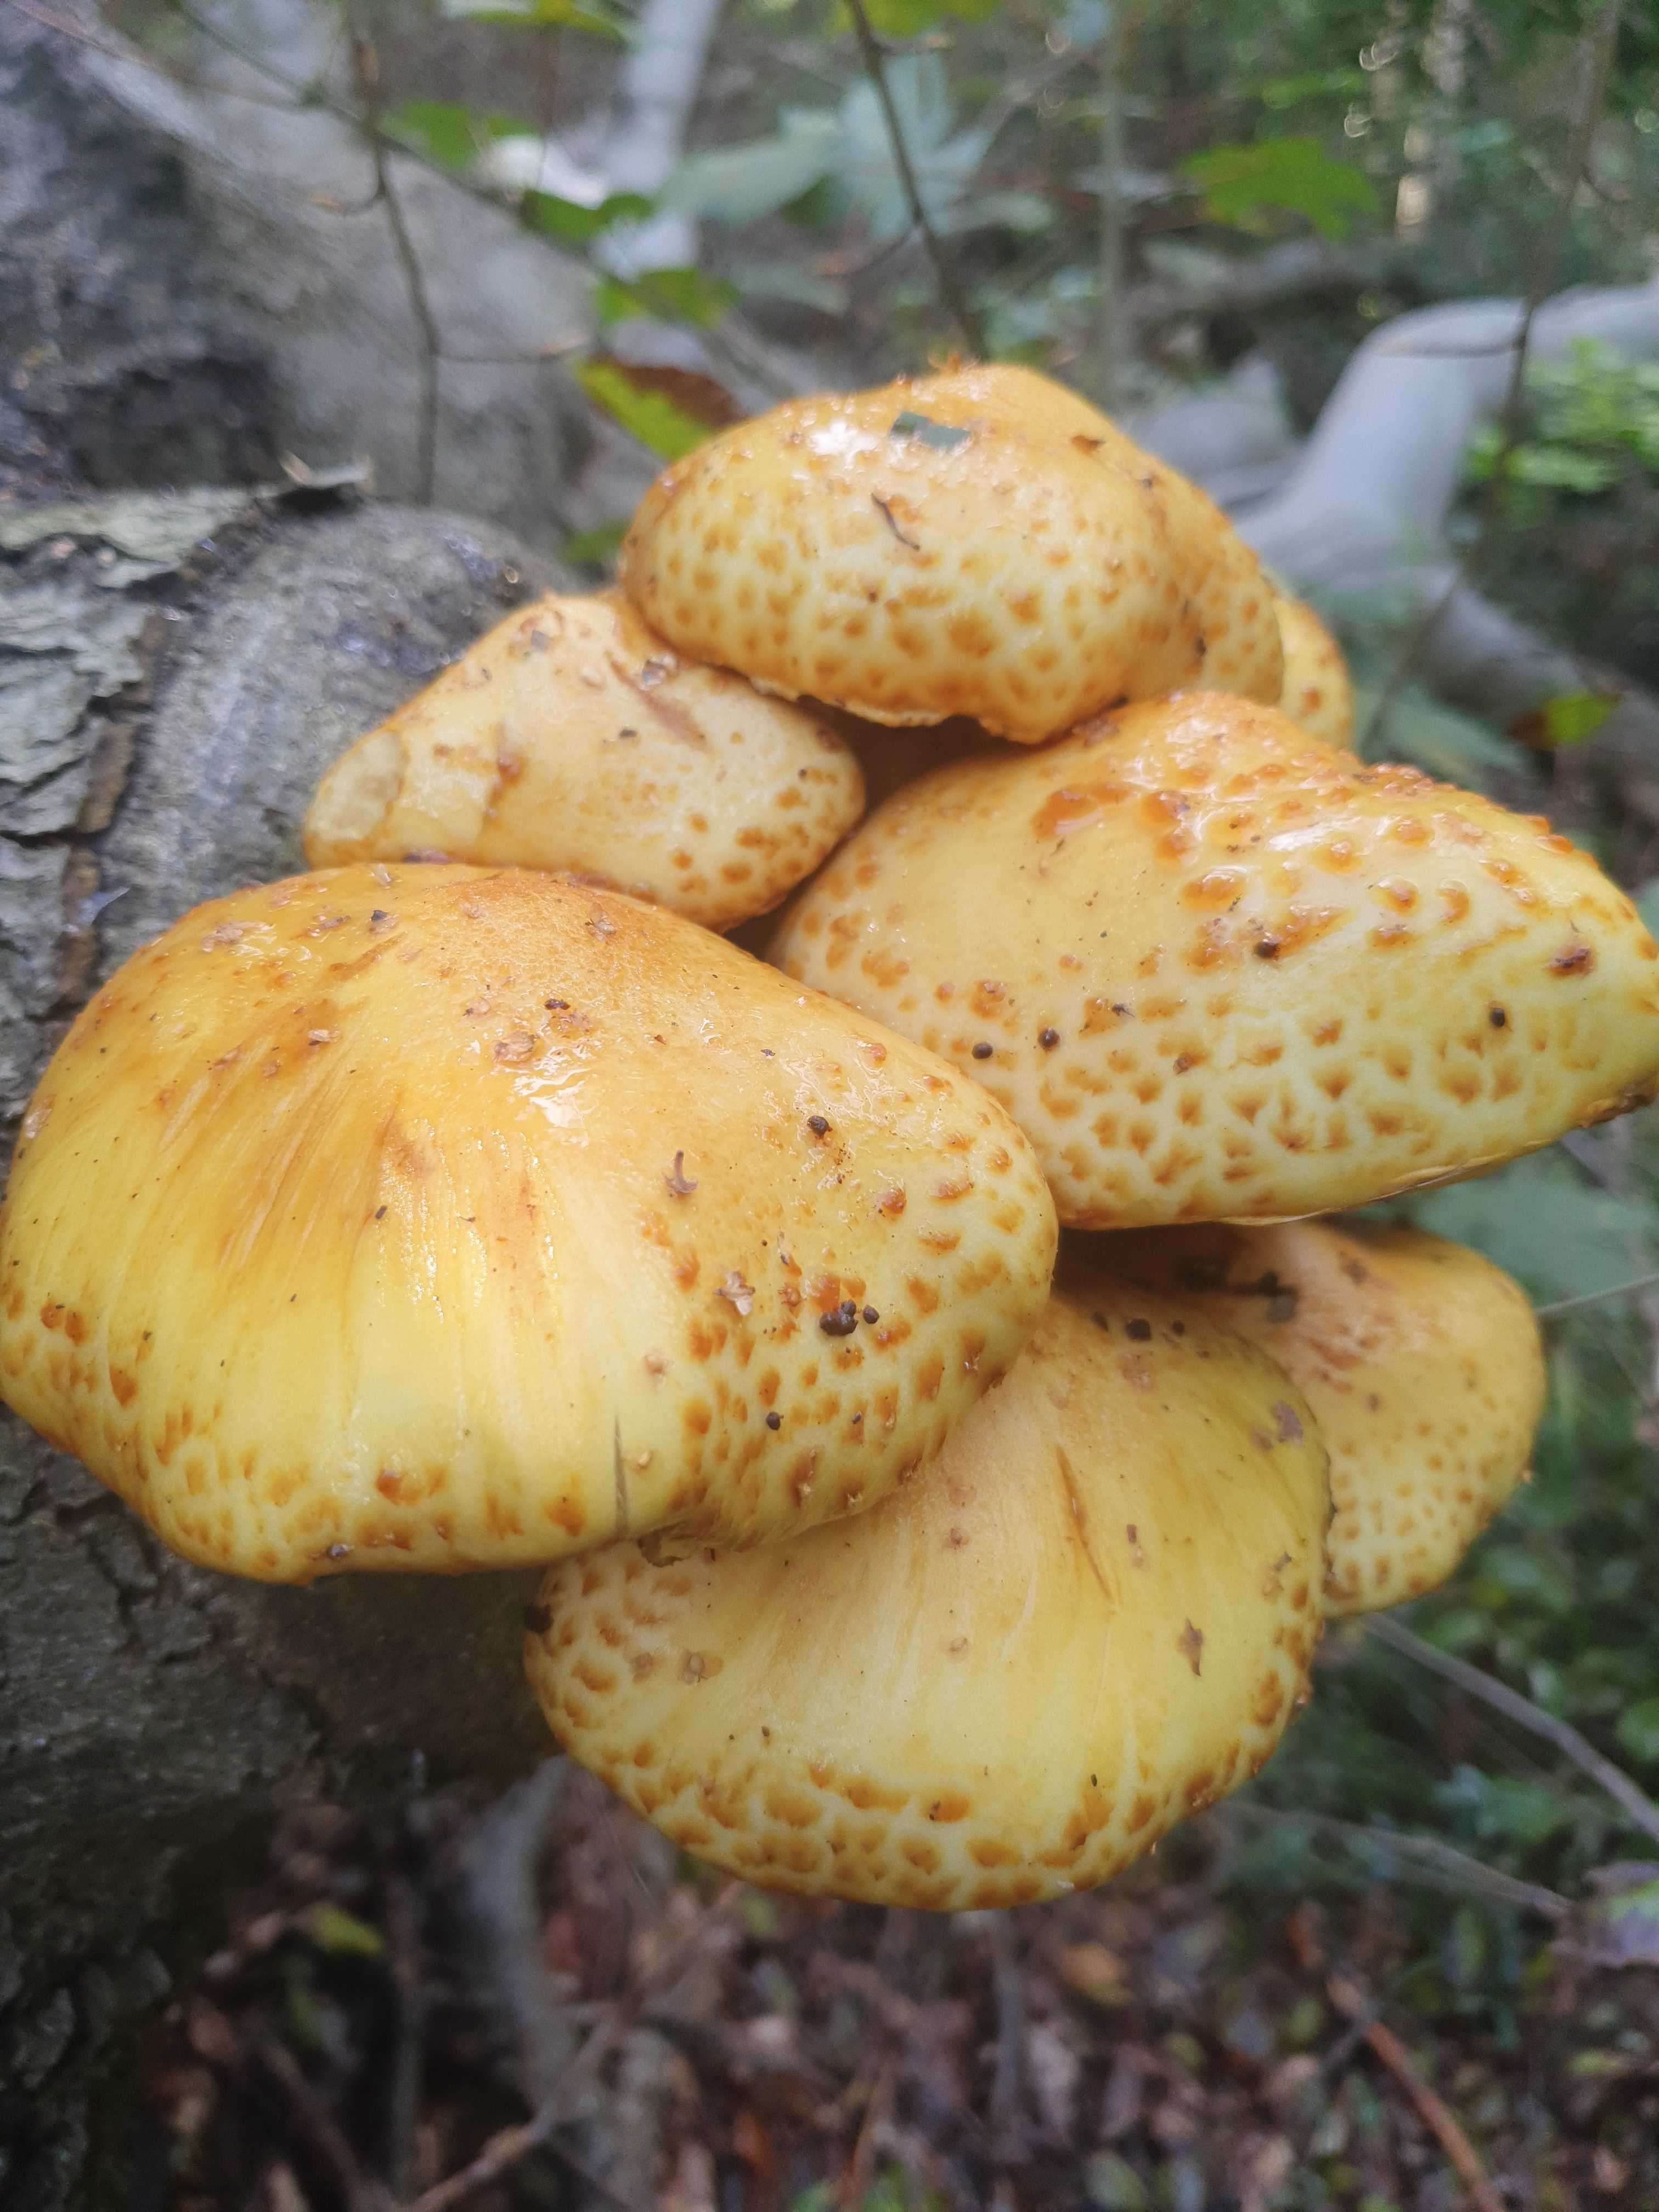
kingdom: Fungi
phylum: Basidiomycota
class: Agaricomycetes
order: Agaricales
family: Strophariaceae
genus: Pholiota
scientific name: Pholiota
